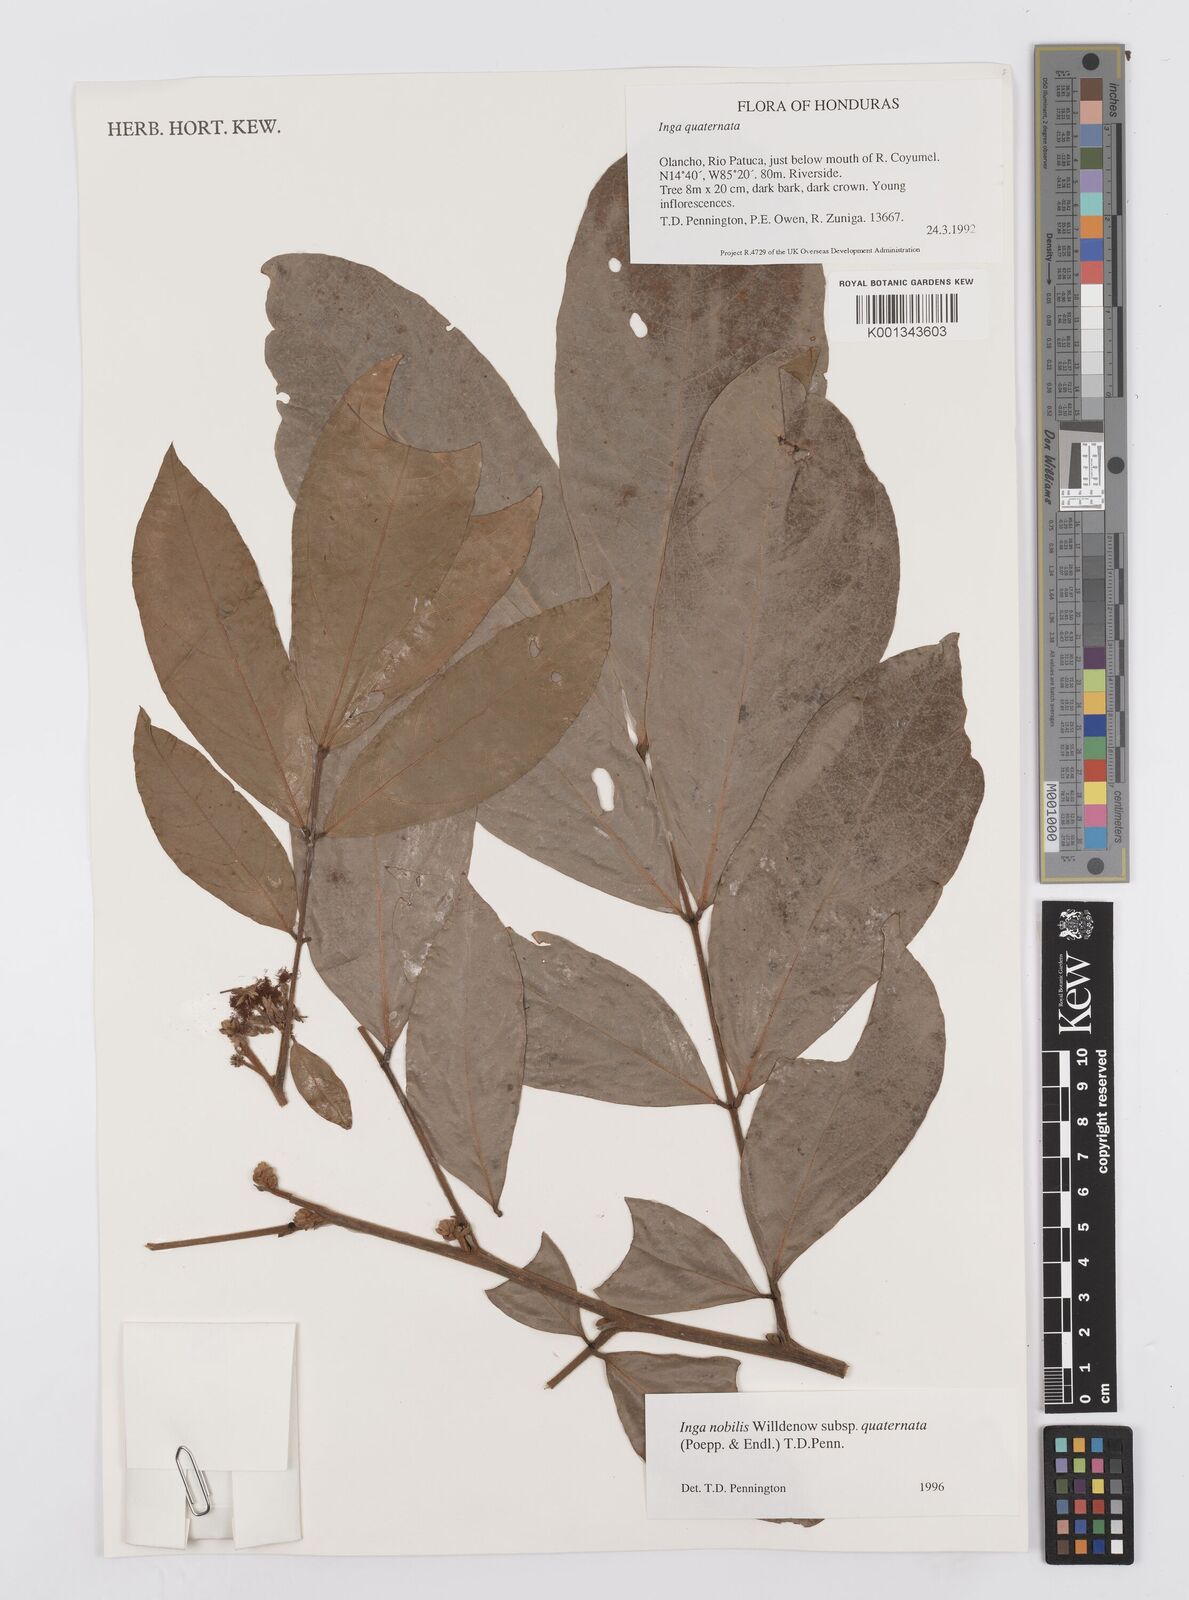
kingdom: Plantae
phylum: Tracheophyta
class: Magnoliopsida
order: Fabales
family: Fabaceae
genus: Inga
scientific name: Inga nobilis
